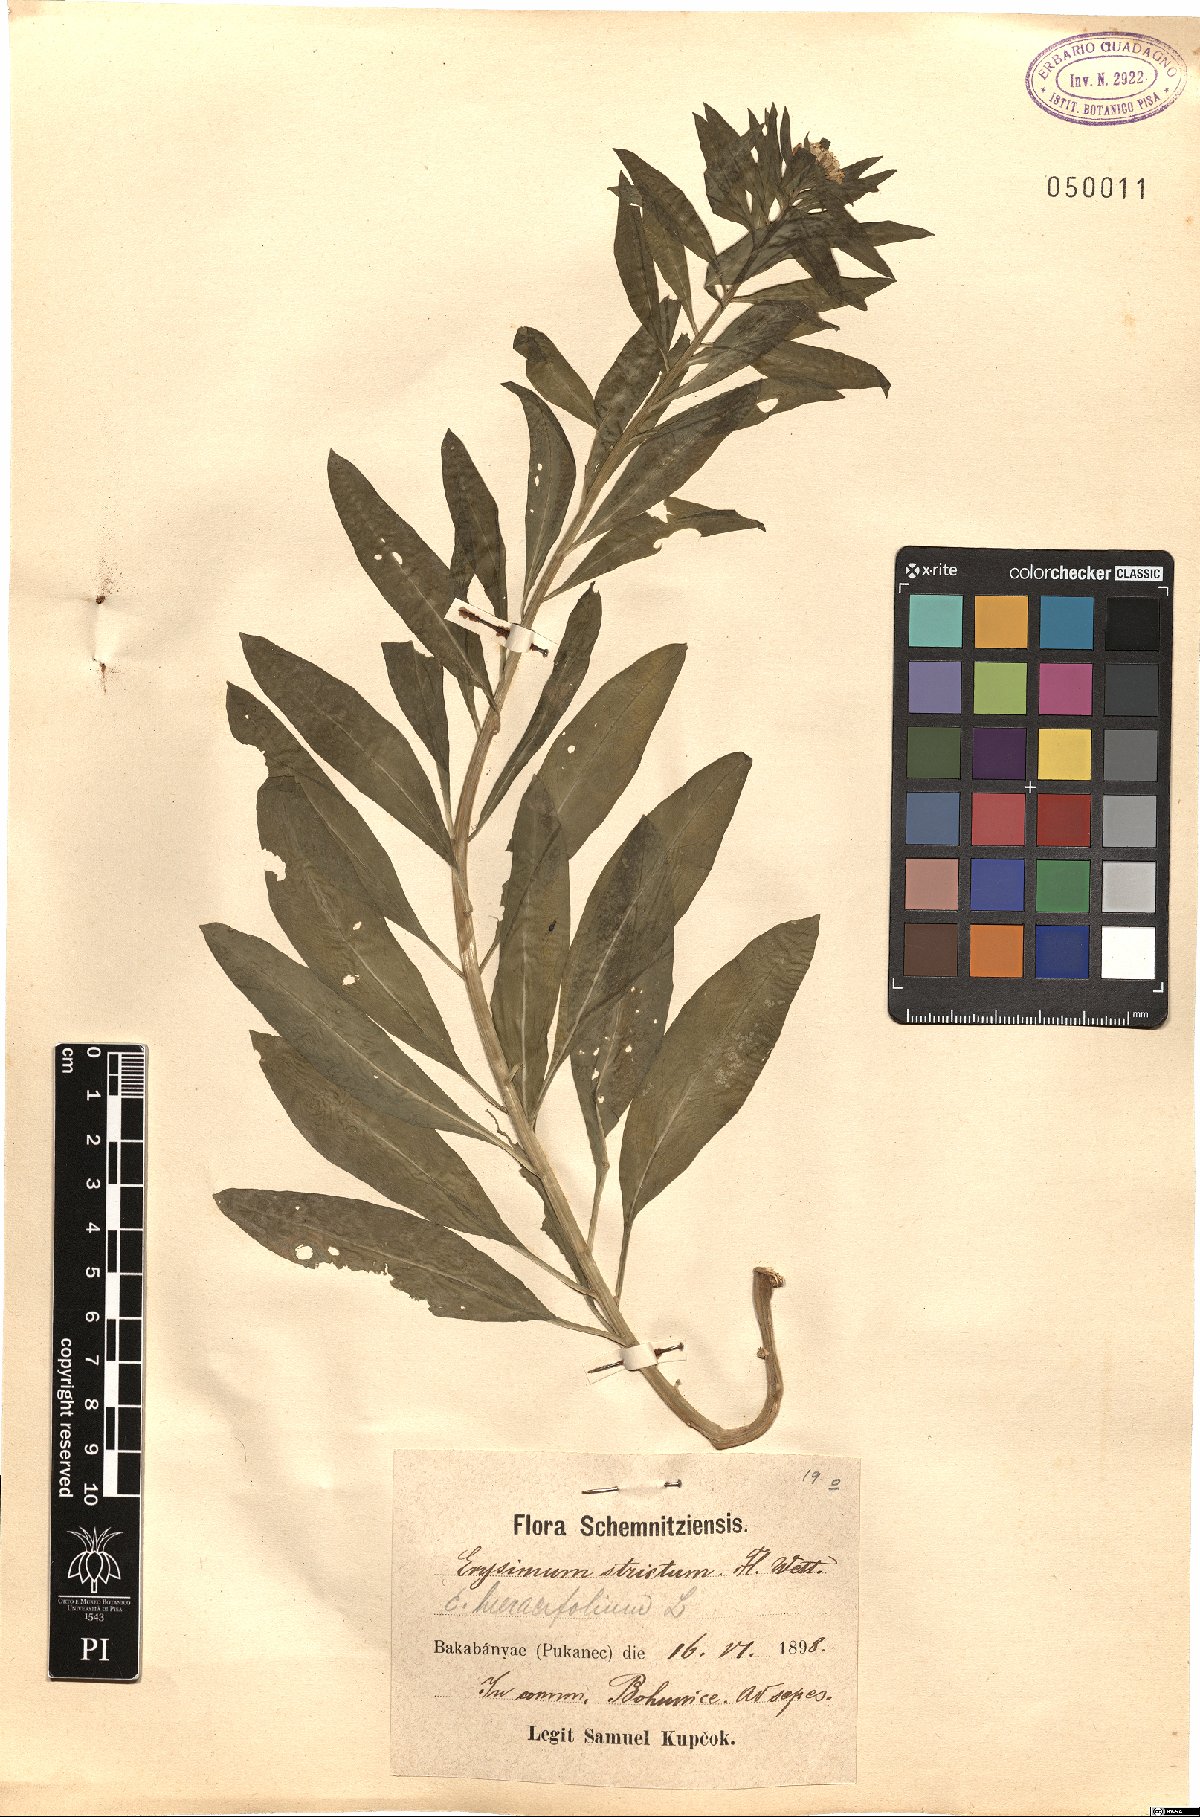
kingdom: Plantae
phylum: Tracheophyta
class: Magnoliopsida
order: Brassicales
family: Brassicaceae
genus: Erysimum
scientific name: Erysimum strictum
